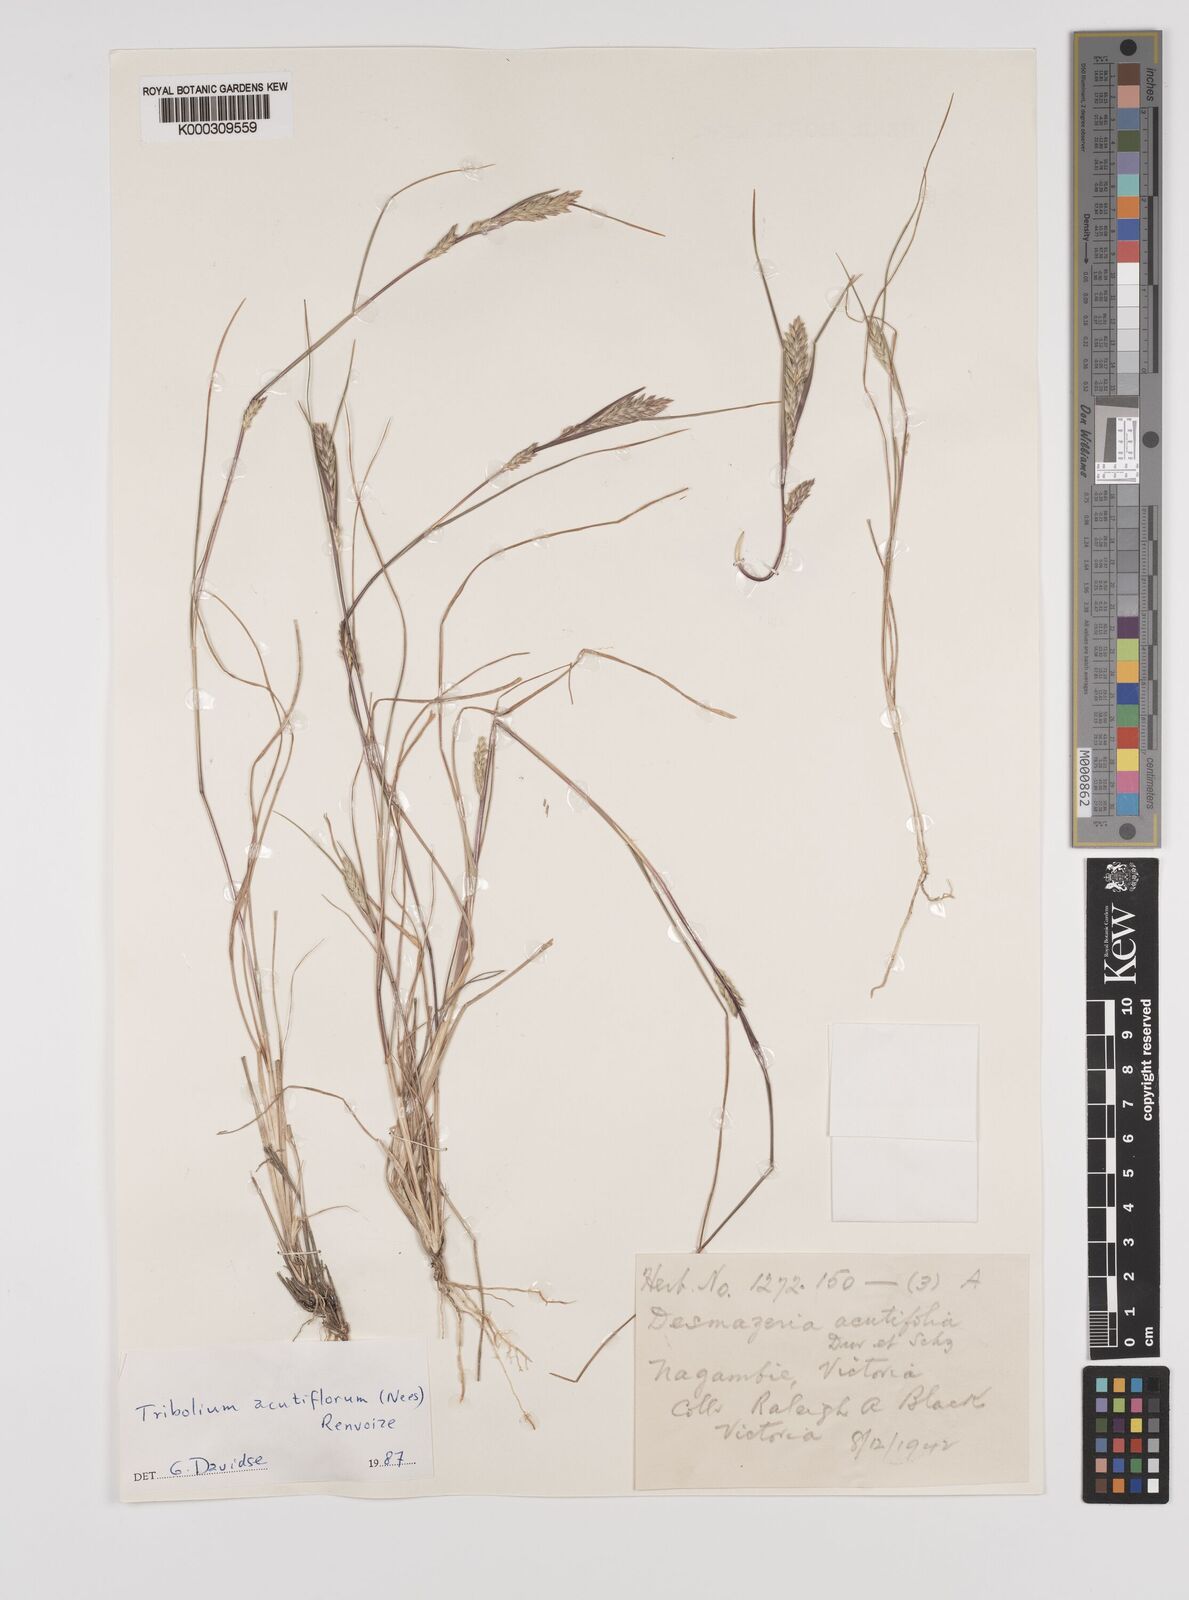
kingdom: Plantae
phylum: Tracheophyta
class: Liliopsida
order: Poales
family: Poaceae
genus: Tribolium
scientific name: Tribolium acutiflorum
